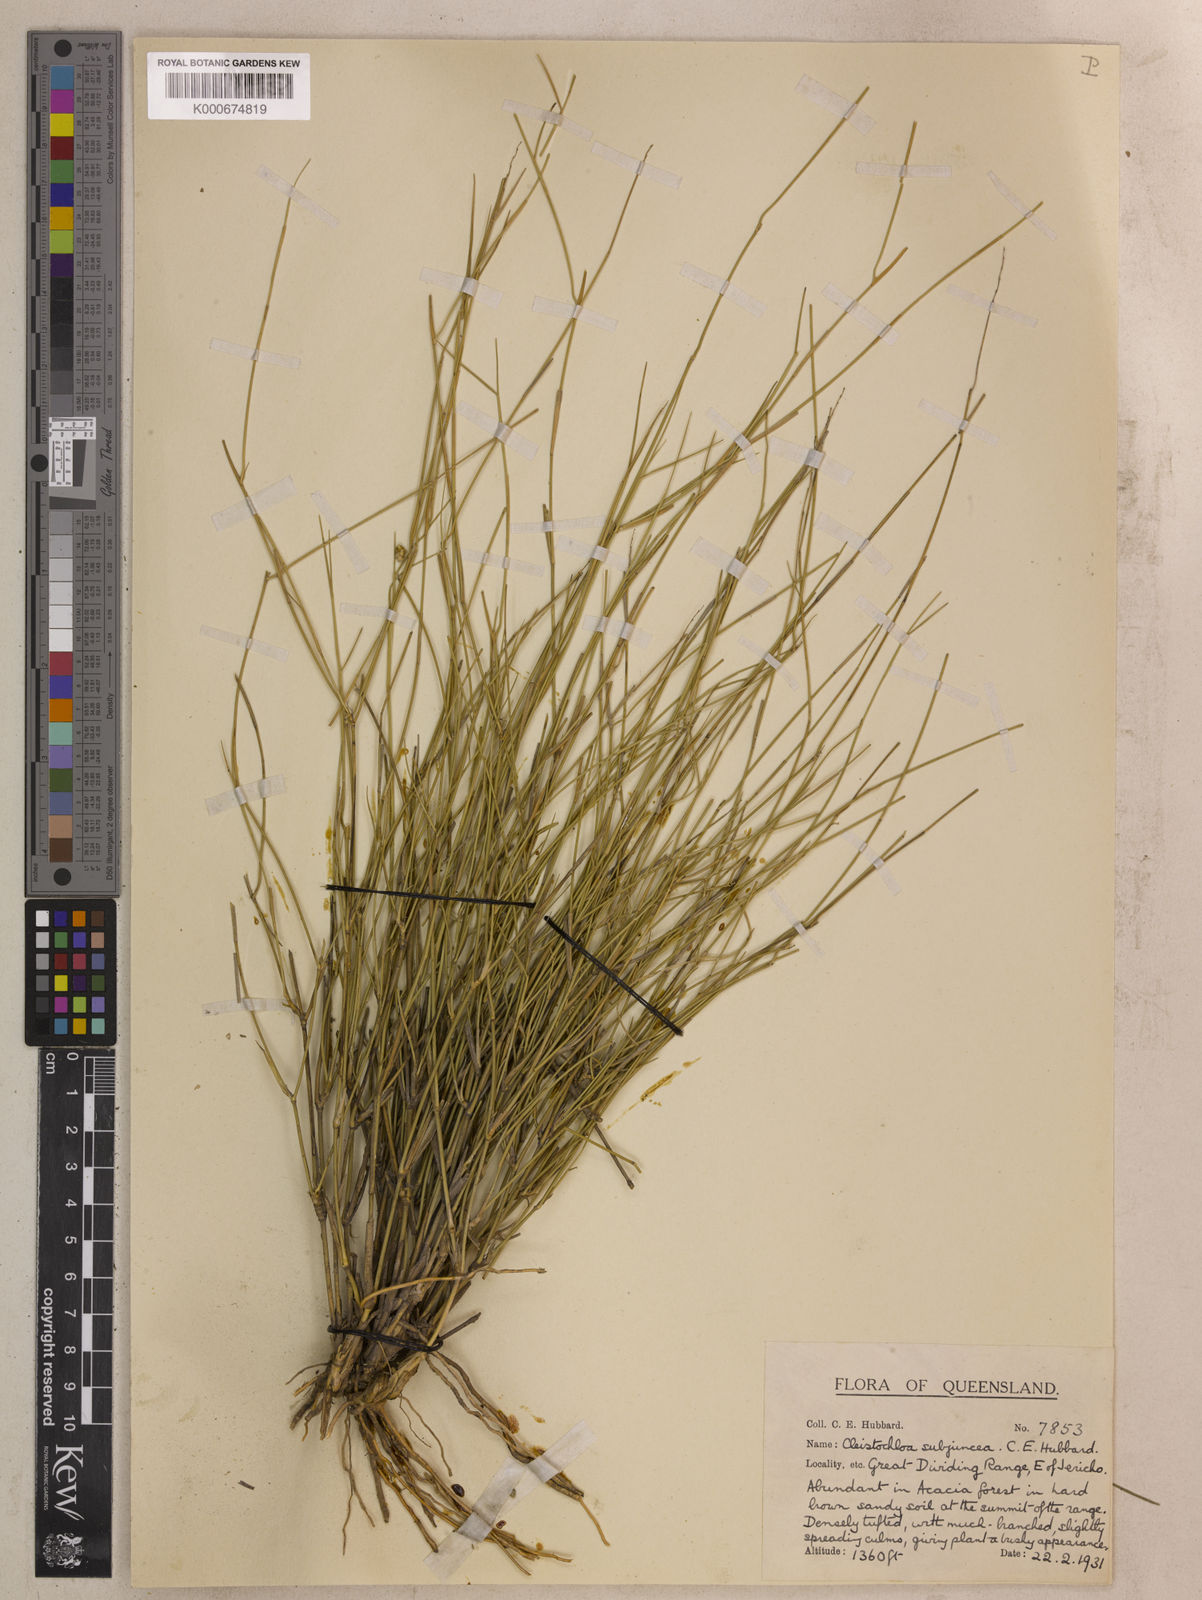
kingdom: Plantae
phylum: Tracheophyta
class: Liliopsida
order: Poales
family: Poaceae
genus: Cleistochloa
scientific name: Cleistochloa subjuncea
